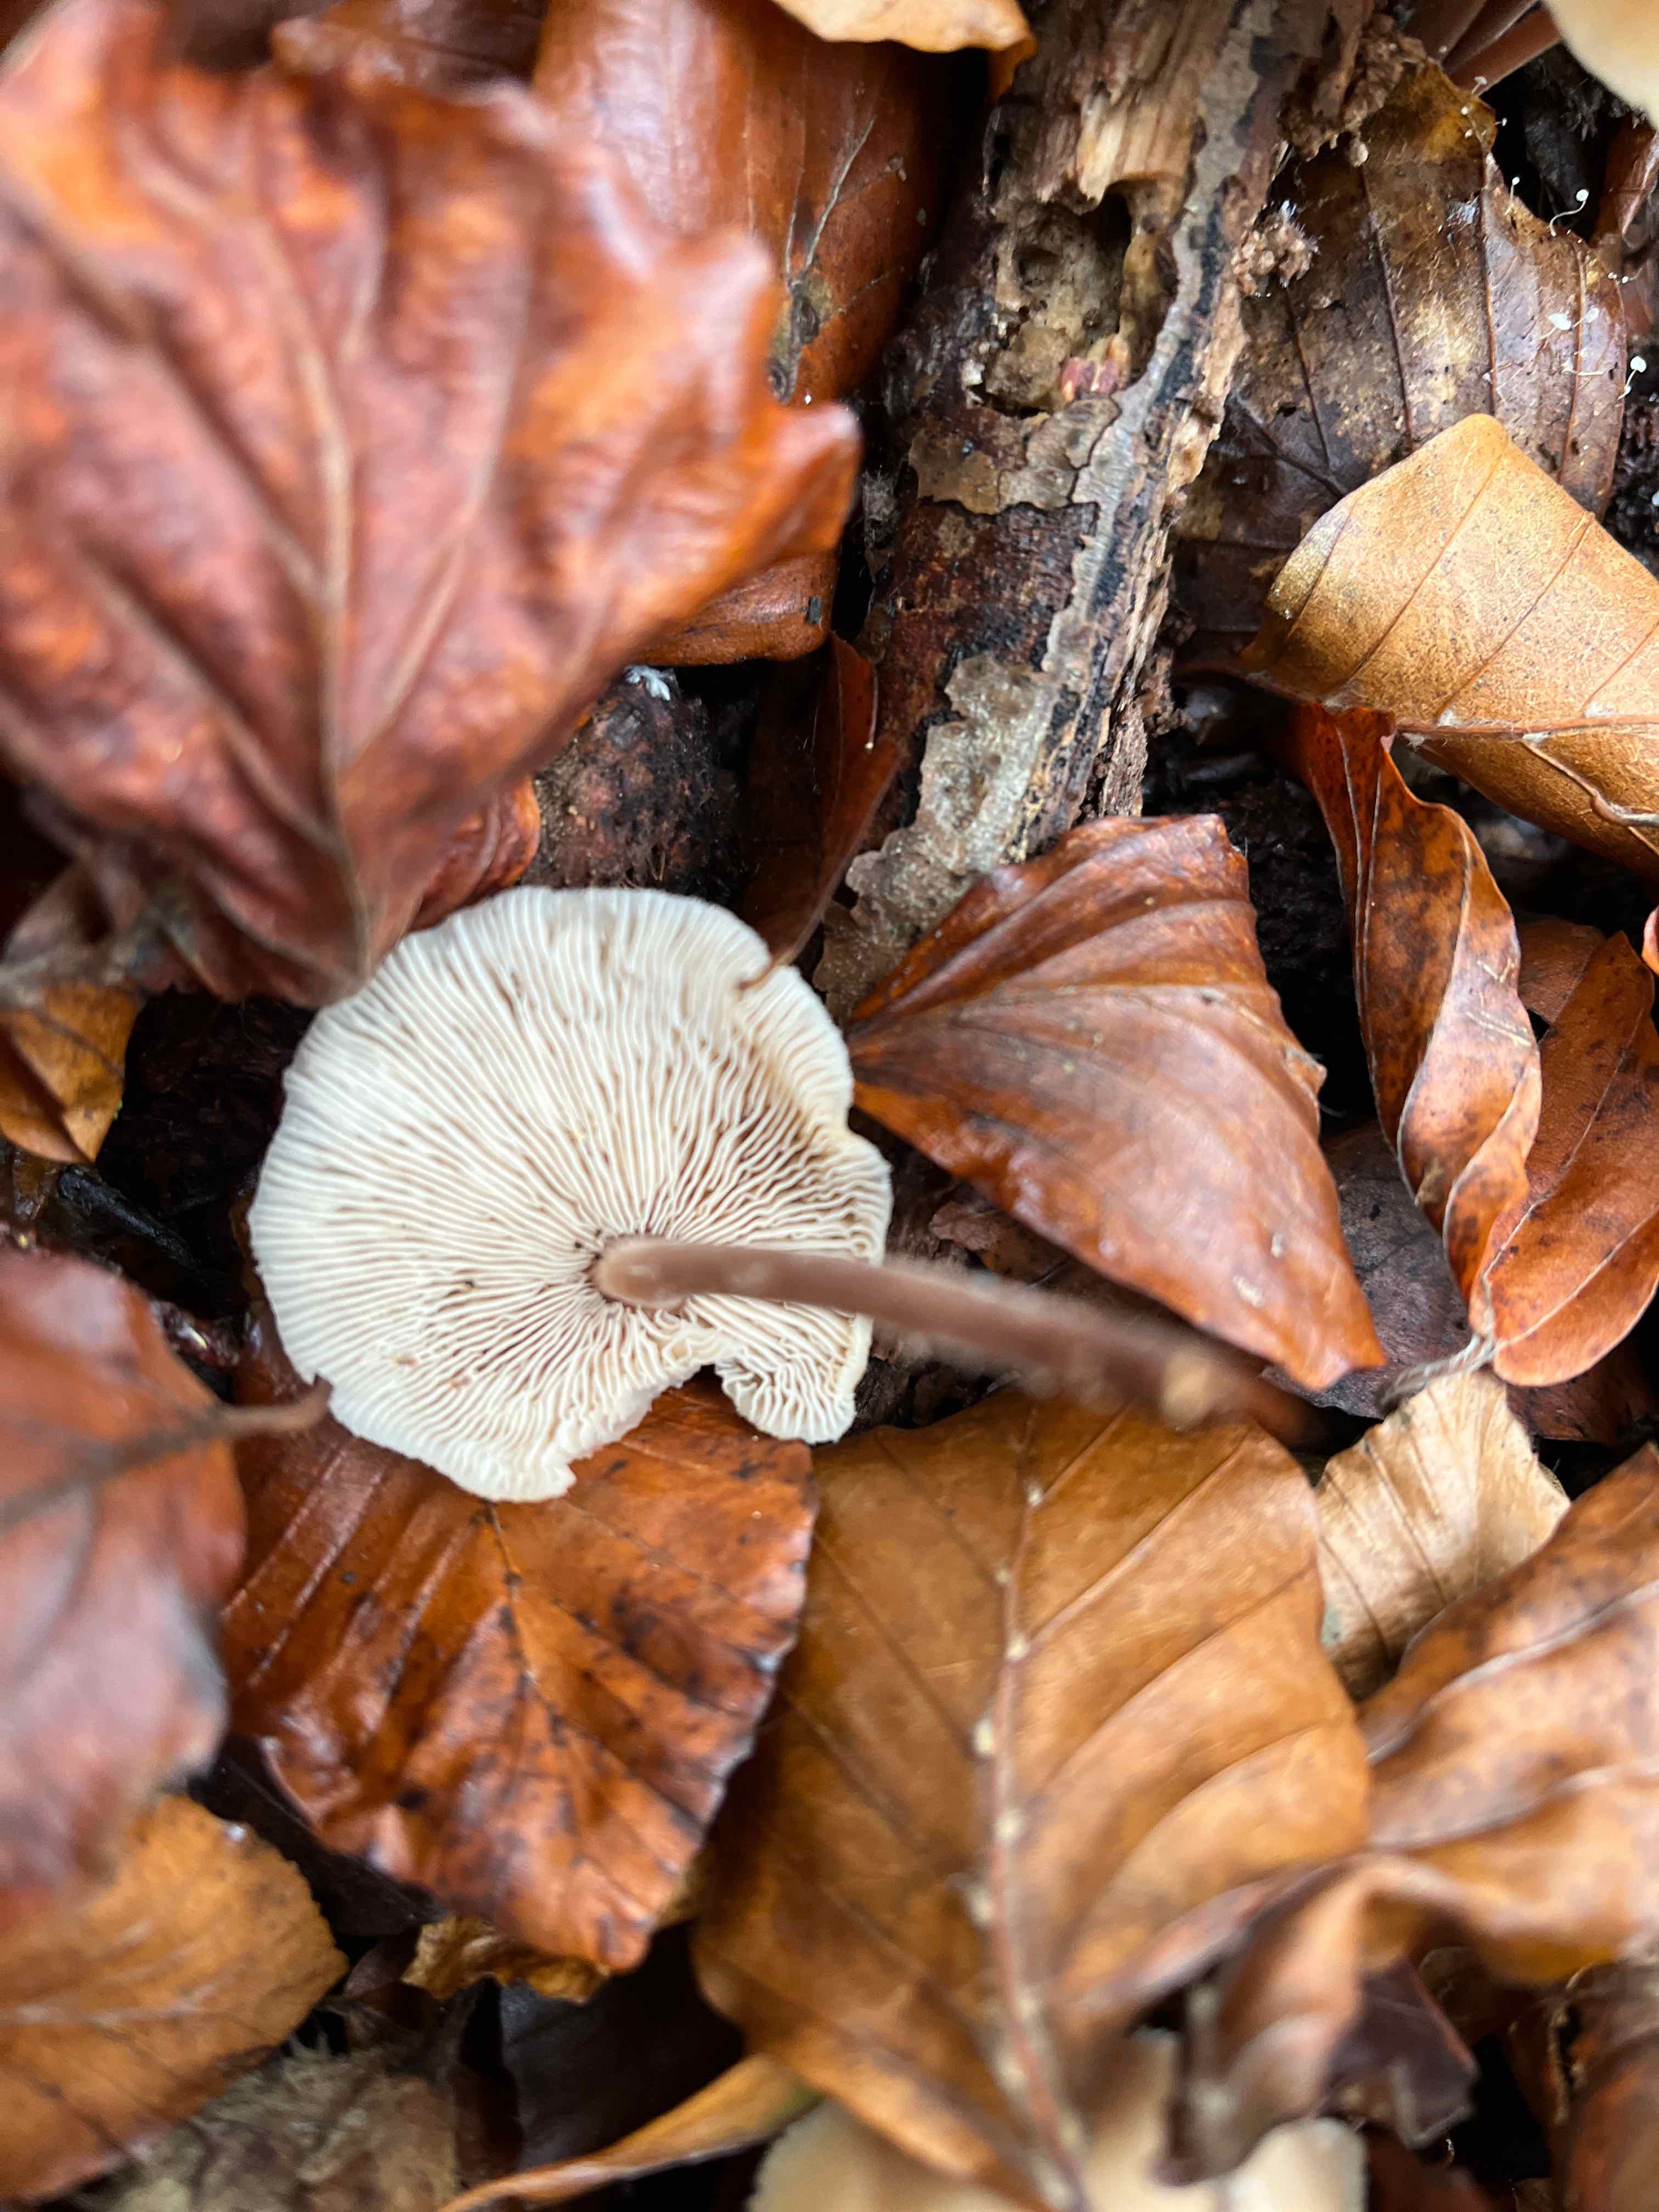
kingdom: Fungi
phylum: Basidiomycota
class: Agaricomycetes
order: Agaricales
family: Omphalotaceae
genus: Collybiopsis
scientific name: Collybiopsis confluens
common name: knippe-fladhat
